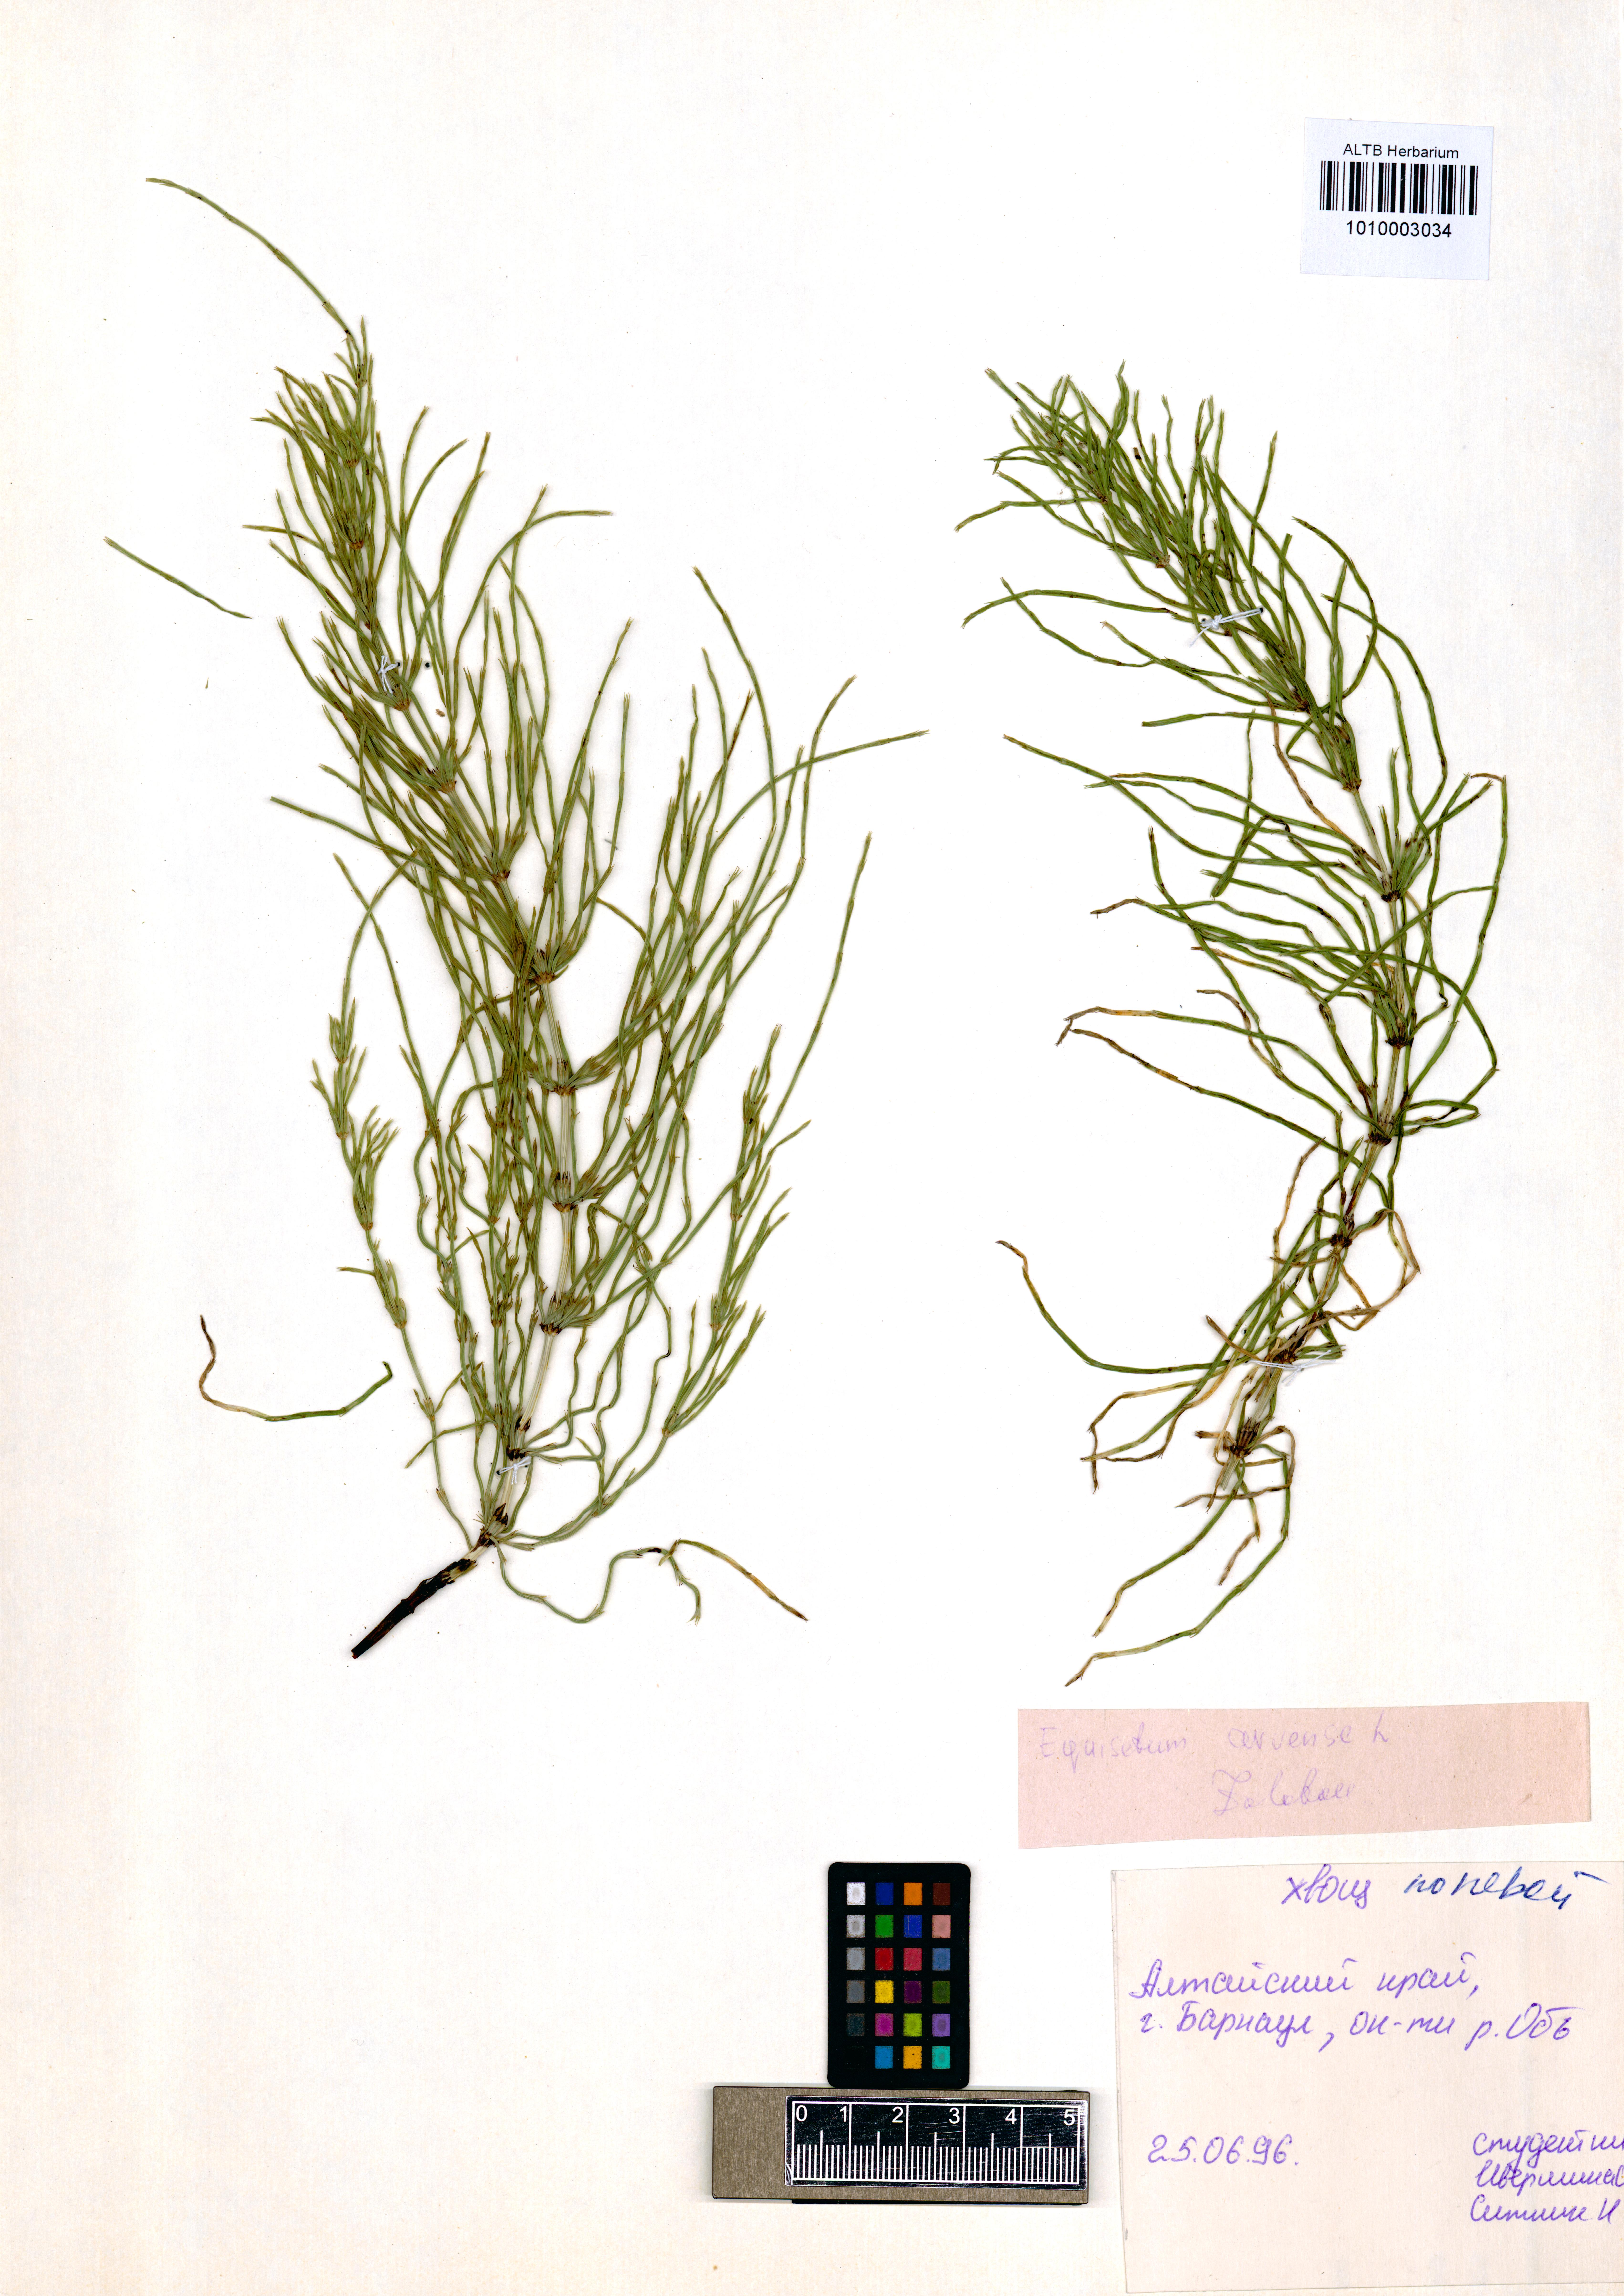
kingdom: Plantae
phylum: Tracheophyta
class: Polypodiopsida
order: Equisetales
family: Equisetaceae
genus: Equisetum
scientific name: Equisetum arvense
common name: Field horsetail
